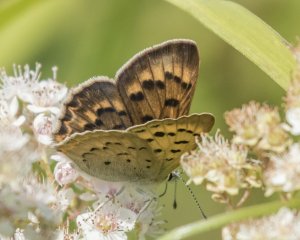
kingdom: Animalia
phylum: Arthropoda
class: Insecta
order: Lepidoptera
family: Lycaenidae
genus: Epidemia
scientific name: Epidemia dorcas
